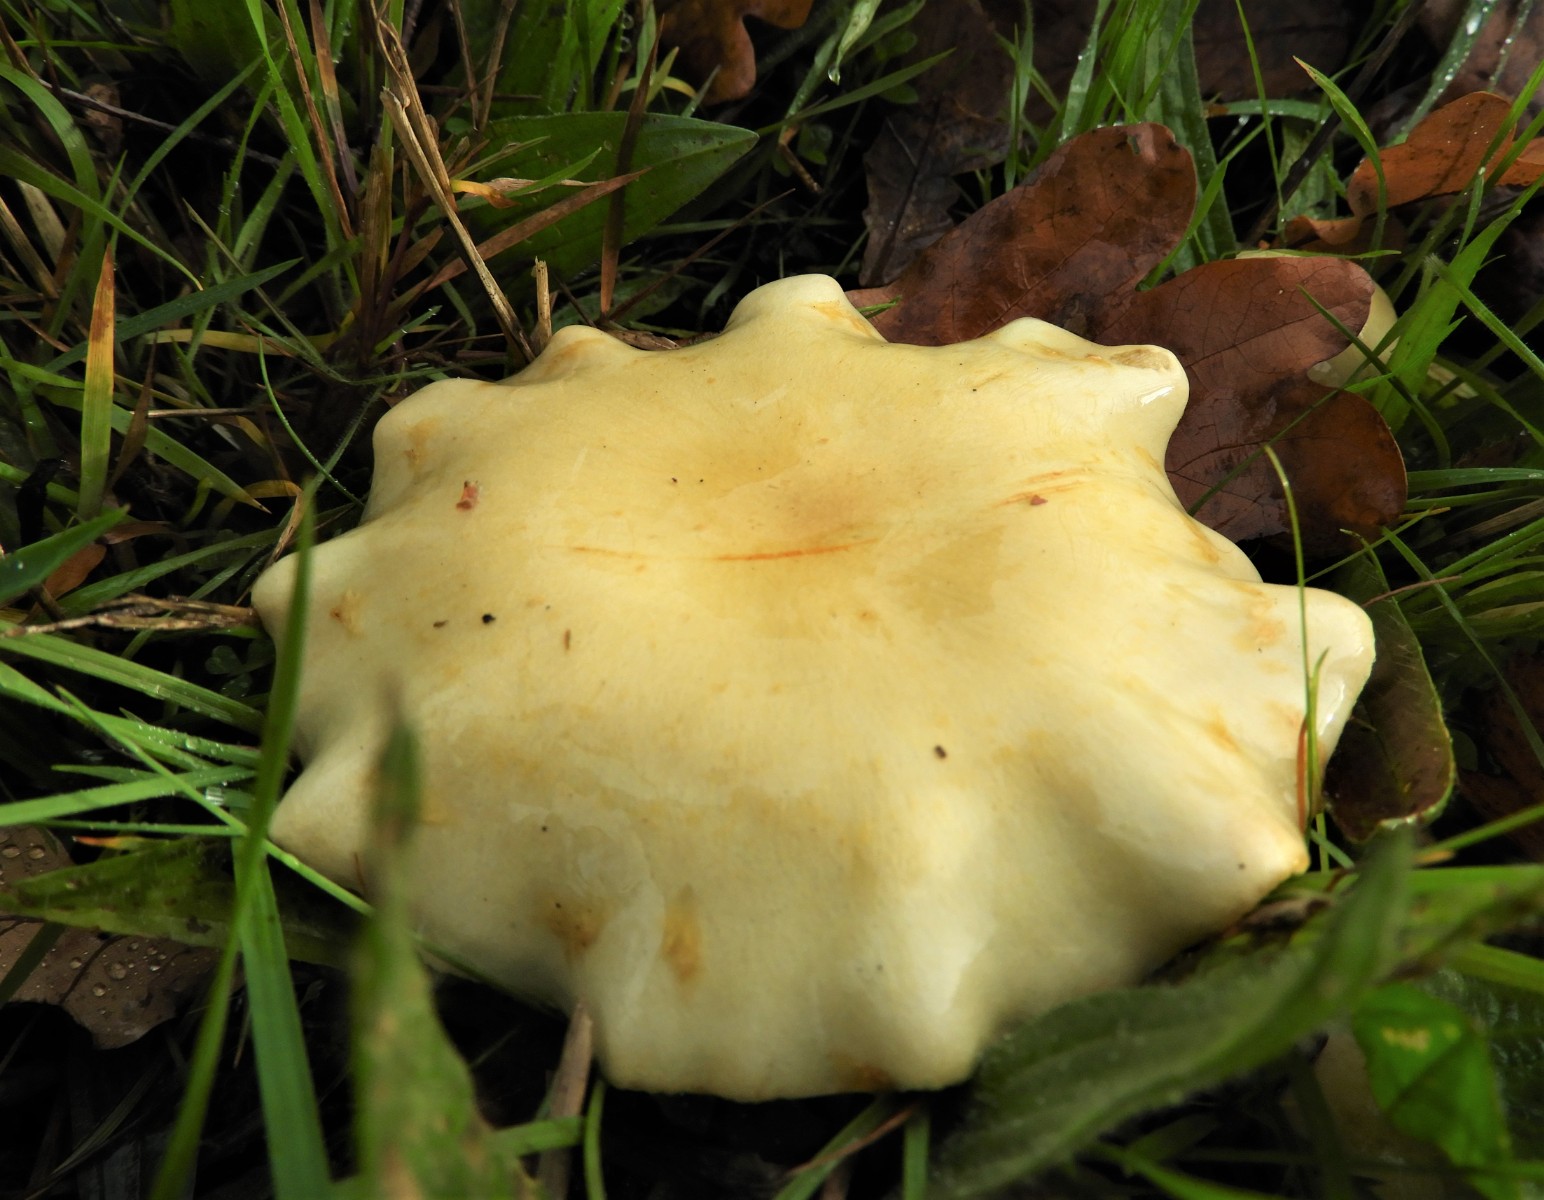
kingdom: Fungi
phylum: Basidiomycota
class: Agaricomycetes
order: Agaricales
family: Strophariaceae
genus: Pholiota
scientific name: Pholiota gummosa
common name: grøngul skælhat
